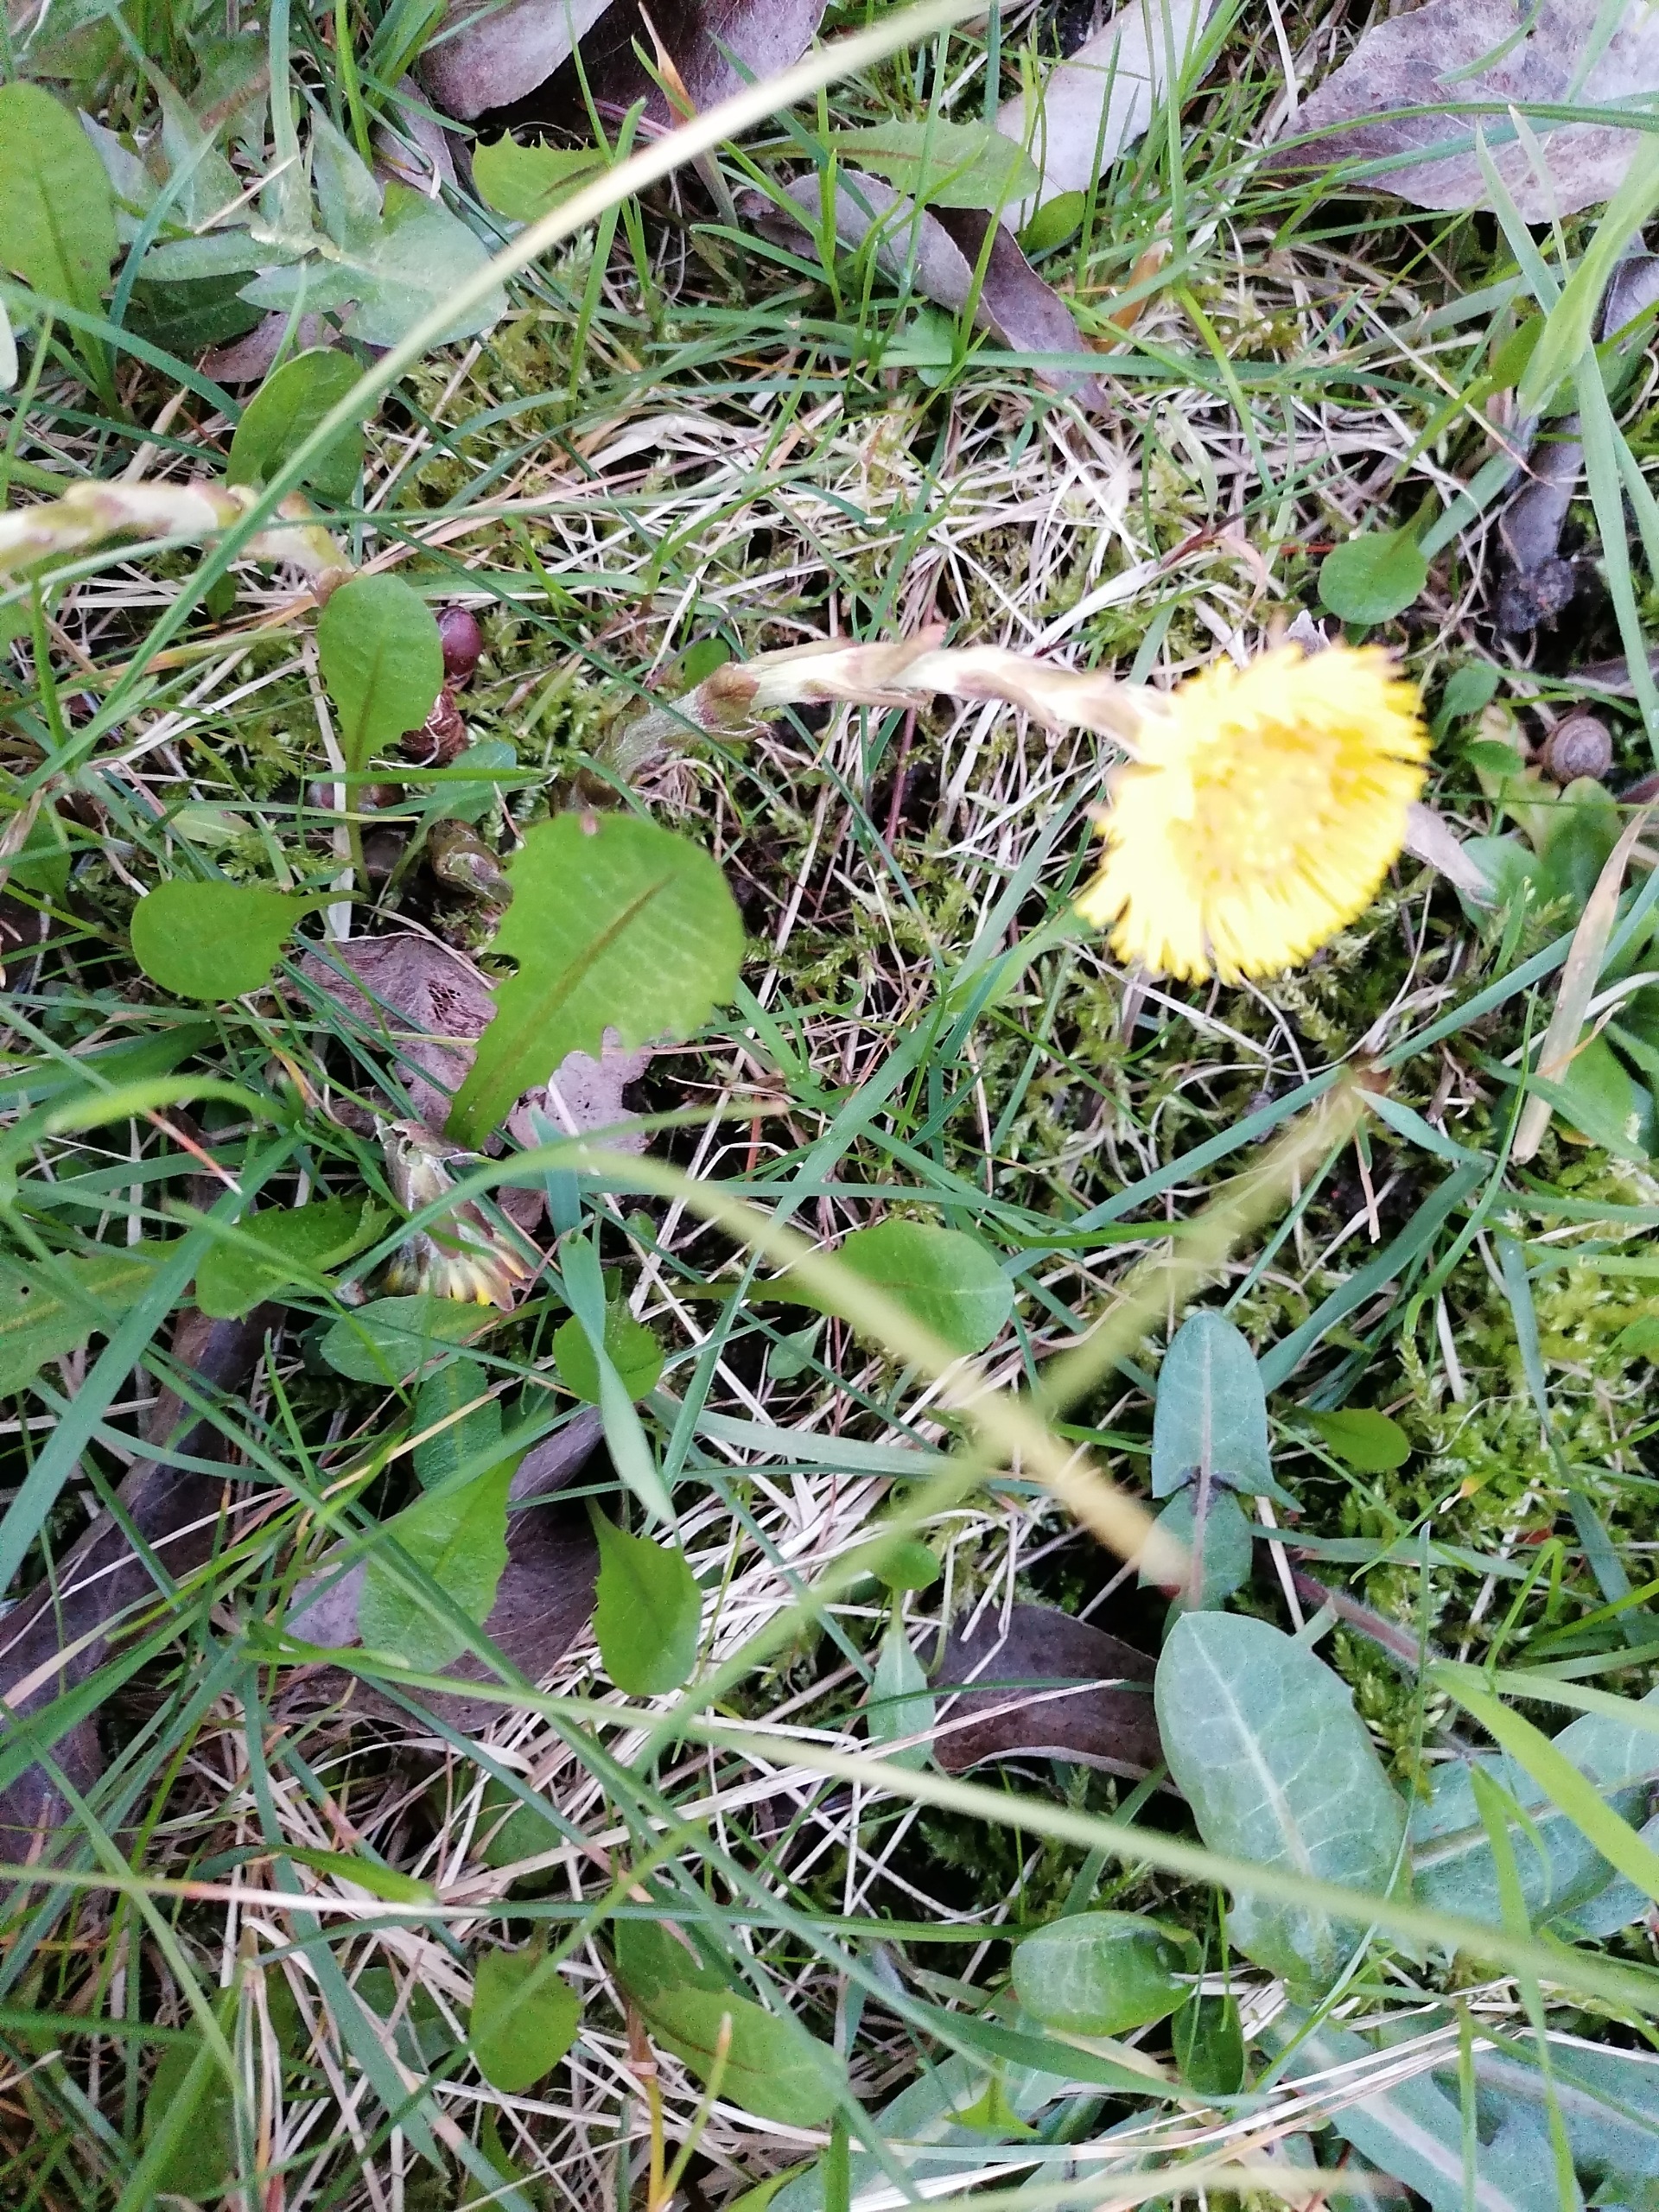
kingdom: Plantae
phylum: Tracheophyta
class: Magnoliopsida
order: Asterales
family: Asteraceae
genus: Tussilago
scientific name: Tussilago farfara
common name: Følfod
